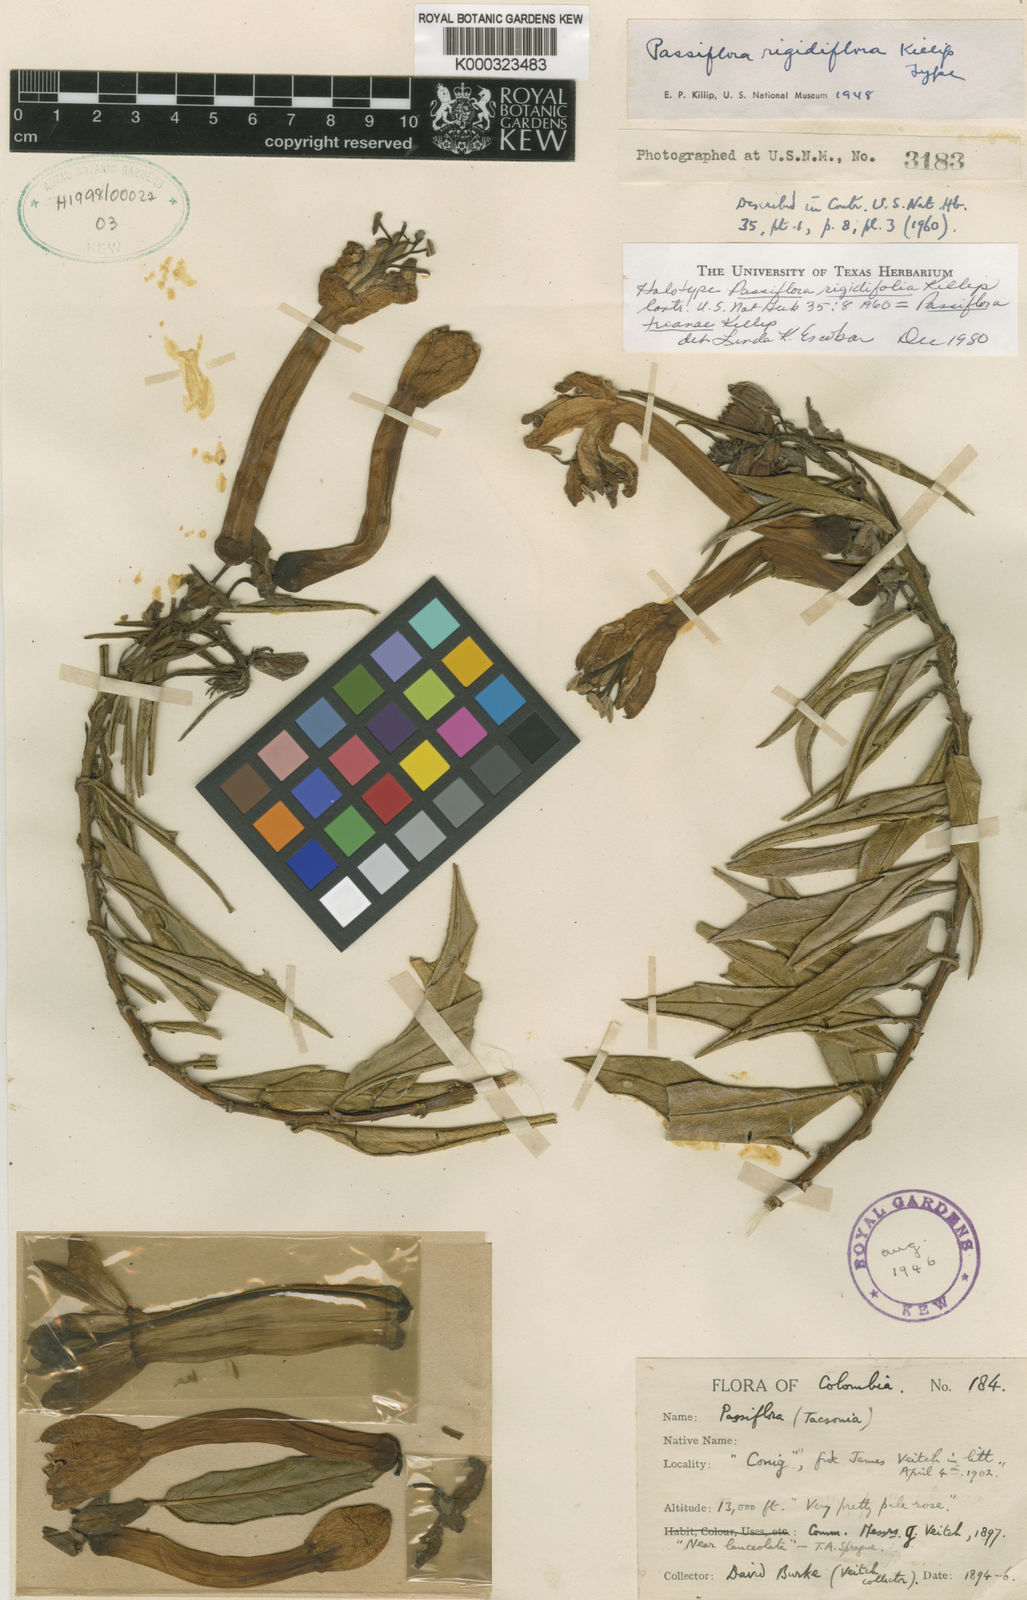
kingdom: Plantae
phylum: Tracheophyta
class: Magnoliopsida
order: Malpighiales
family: Passifloraceae
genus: Passiflora
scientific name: Passiflora trianae
